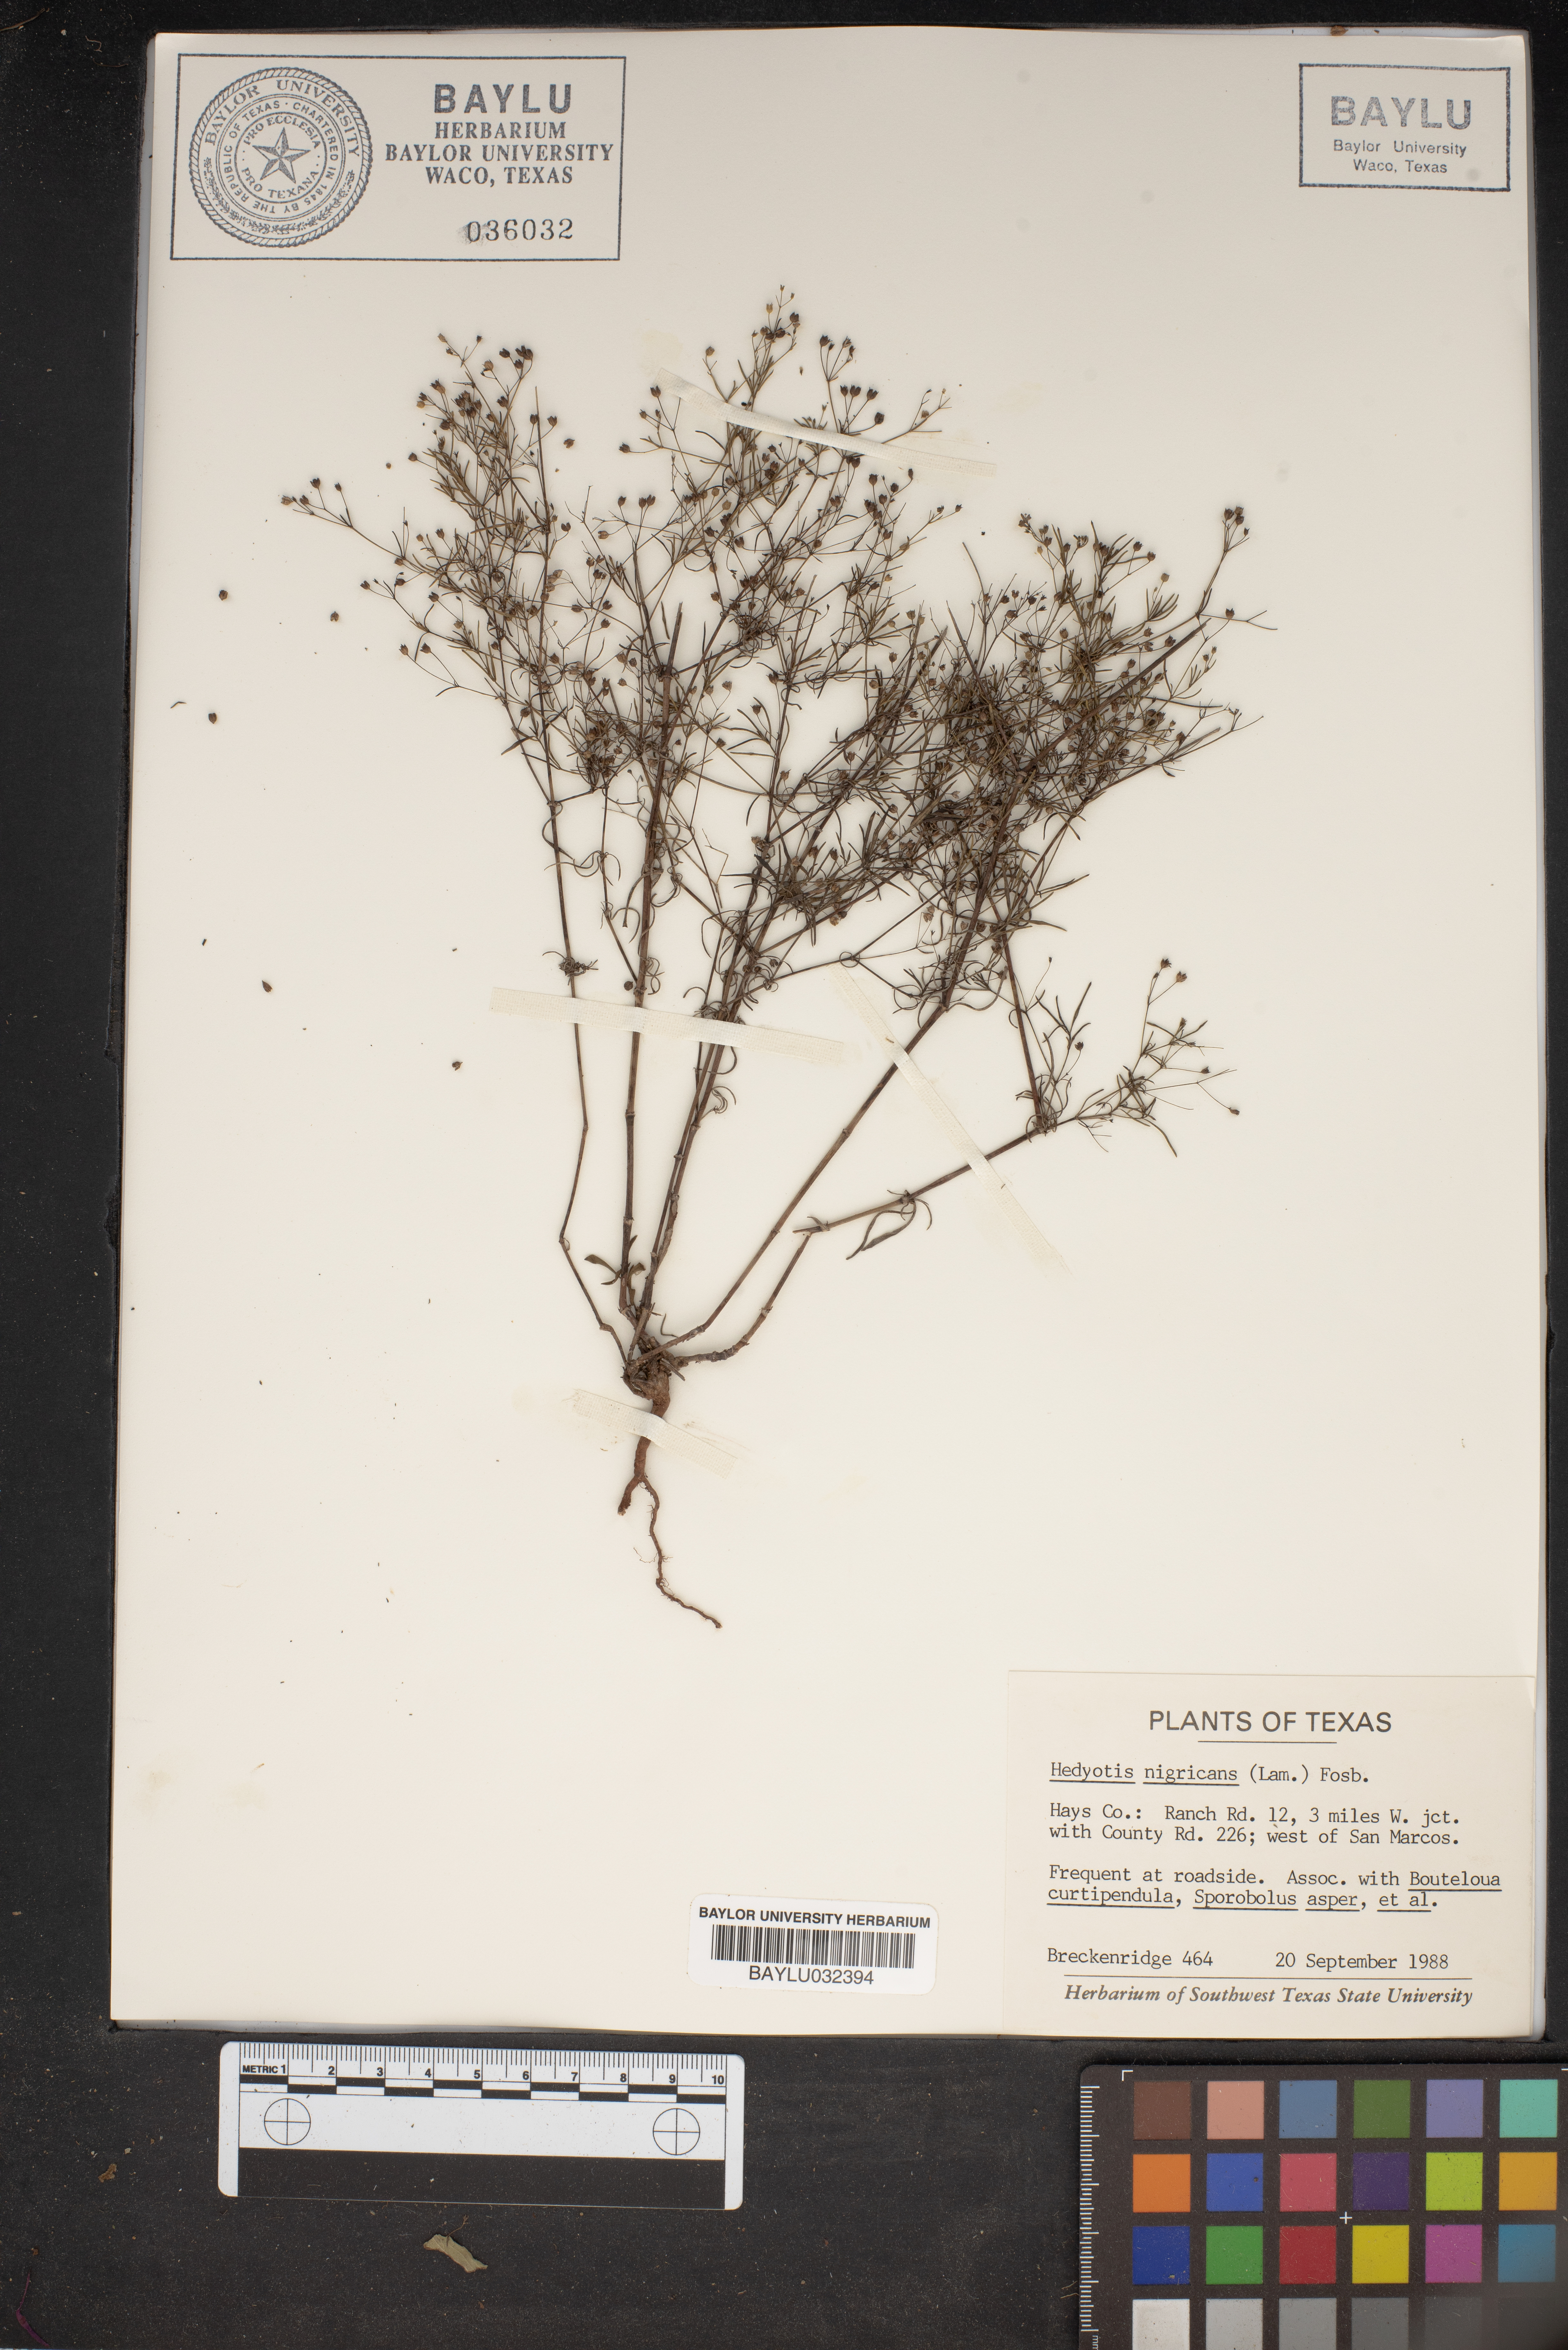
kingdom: Plantae
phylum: Tracheophyta
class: Magnoliopsida
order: Gentianales
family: Rubiaceae
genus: Stenaria
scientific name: Stenaria nigricans
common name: Diamondflowers
